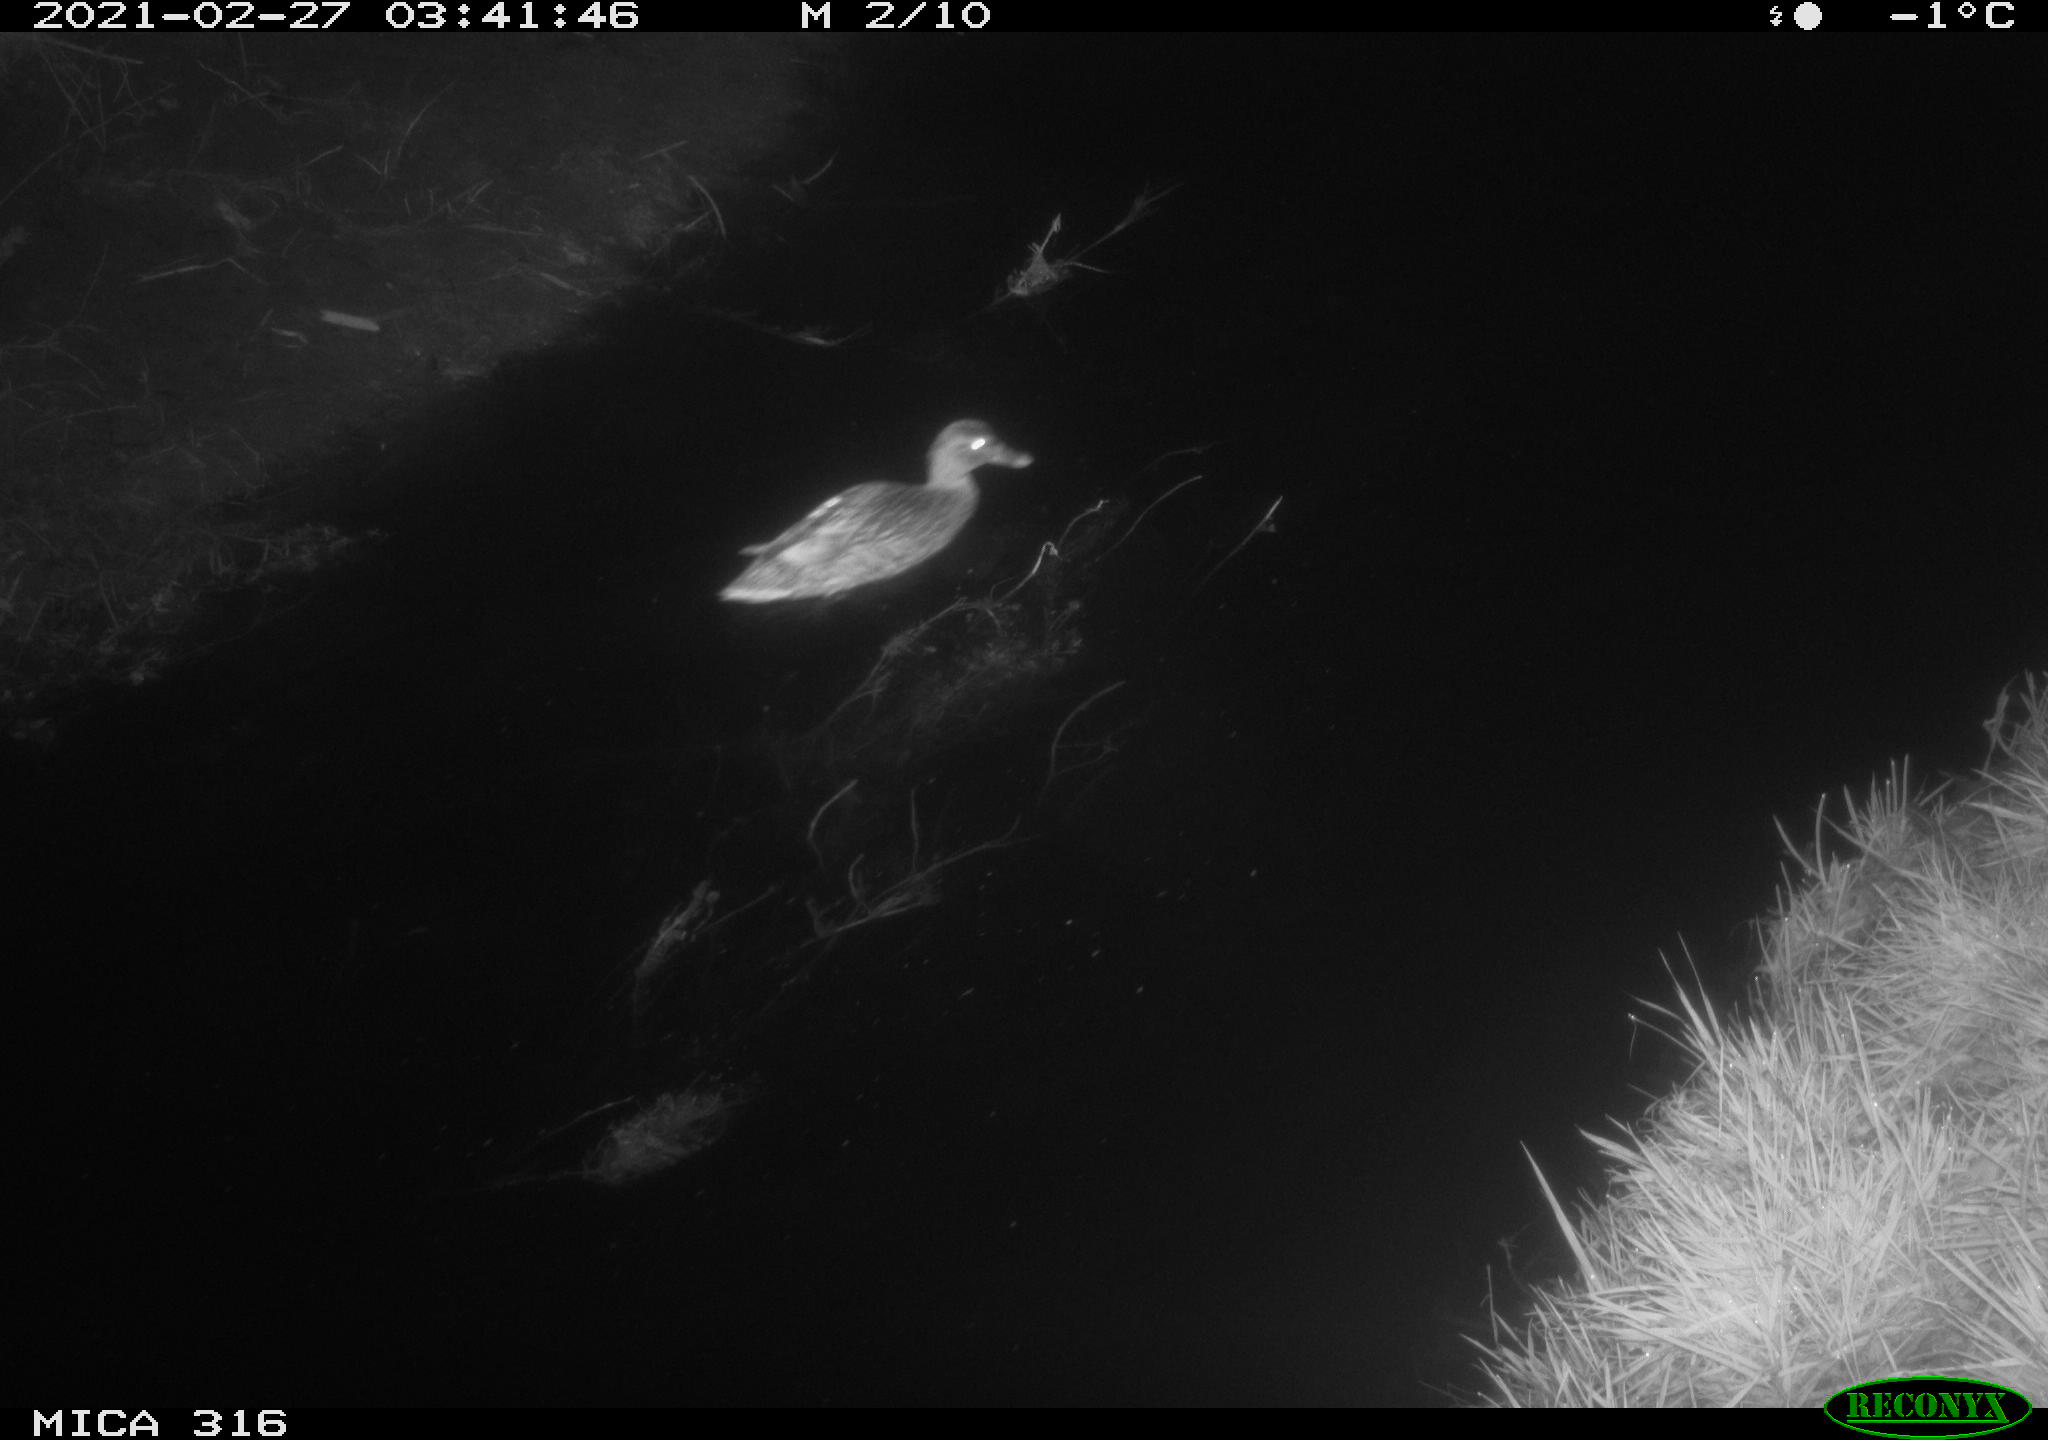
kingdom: Animalia
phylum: Chordata
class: Aves
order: Anseriformes
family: Anatidae
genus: Anas
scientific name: Anas platyrhynchos
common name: Mallard
